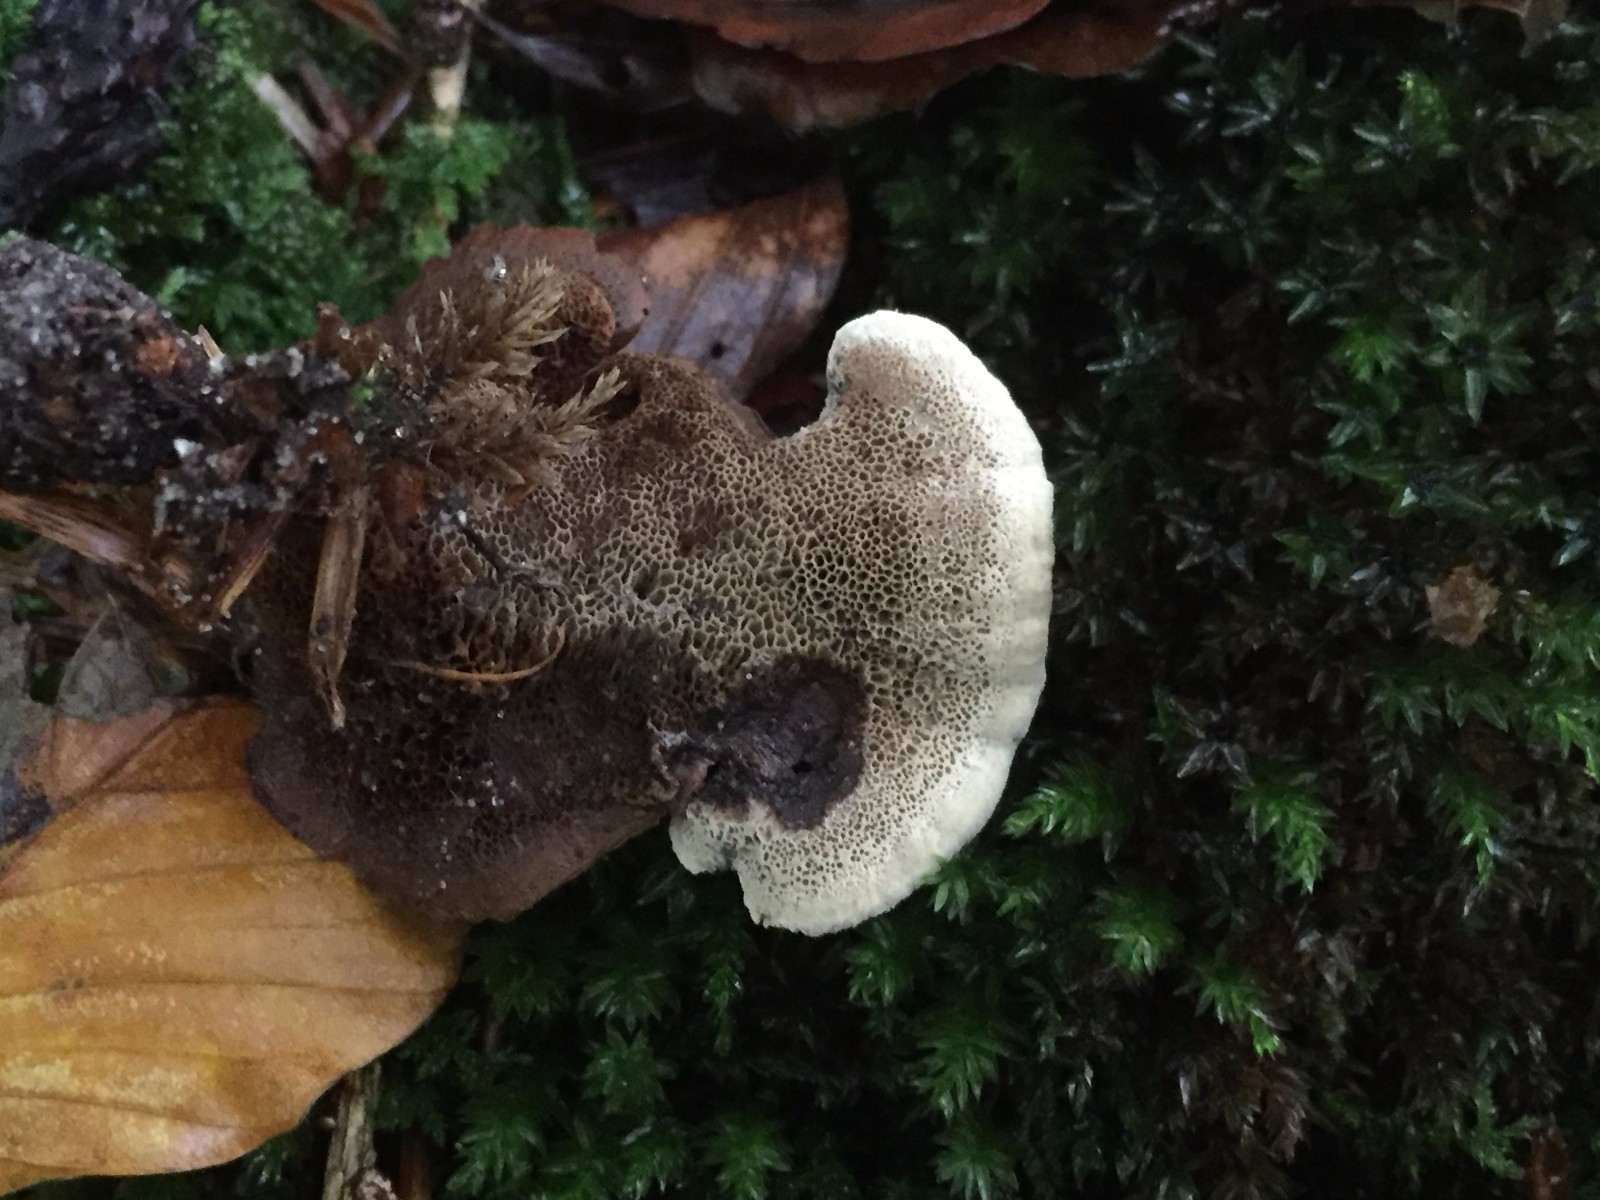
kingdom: Fungi
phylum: Basidiomycota
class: Agaricomycetes
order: Hymenochaetales
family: Hymenochaetaceae
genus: Coltricia
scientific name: Coltricia
